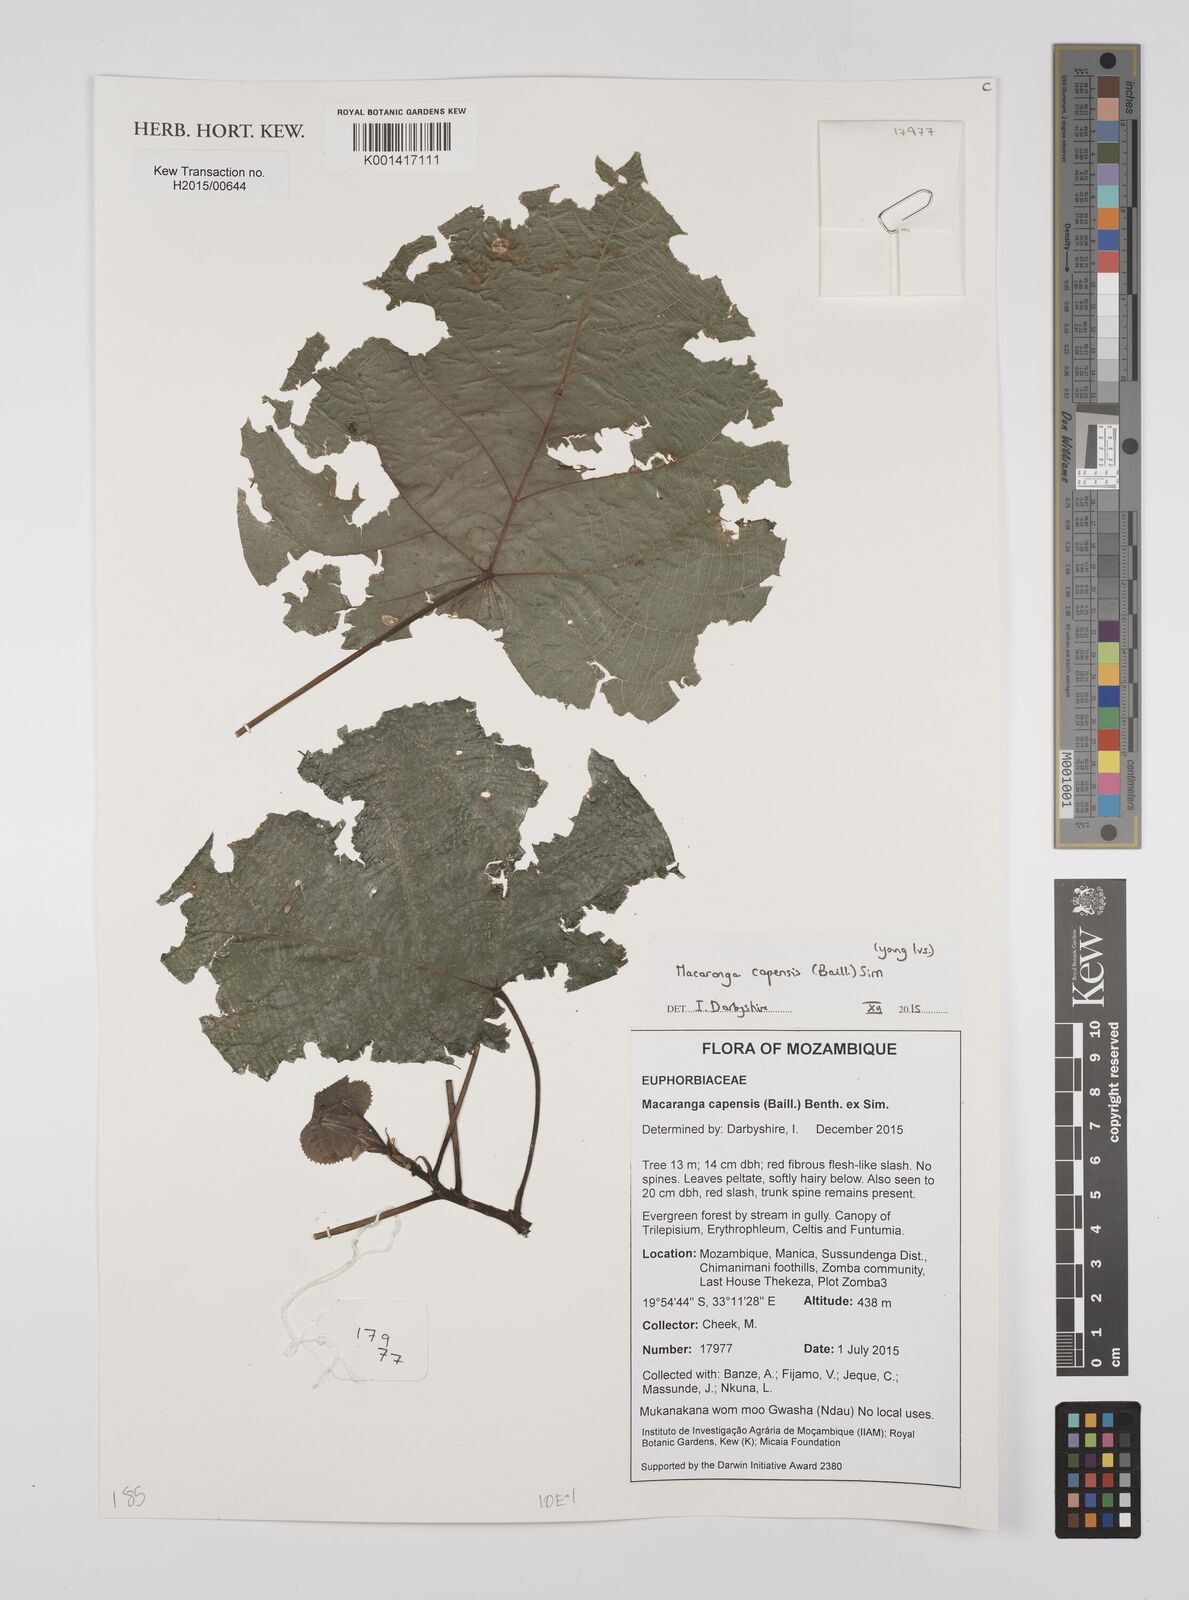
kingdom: Plantae
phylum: Tracheophyta
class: Magnoliopsida
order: Malpighiales
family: Euphorbiaceae
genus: Macaranga
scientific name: Macaranga capensis
